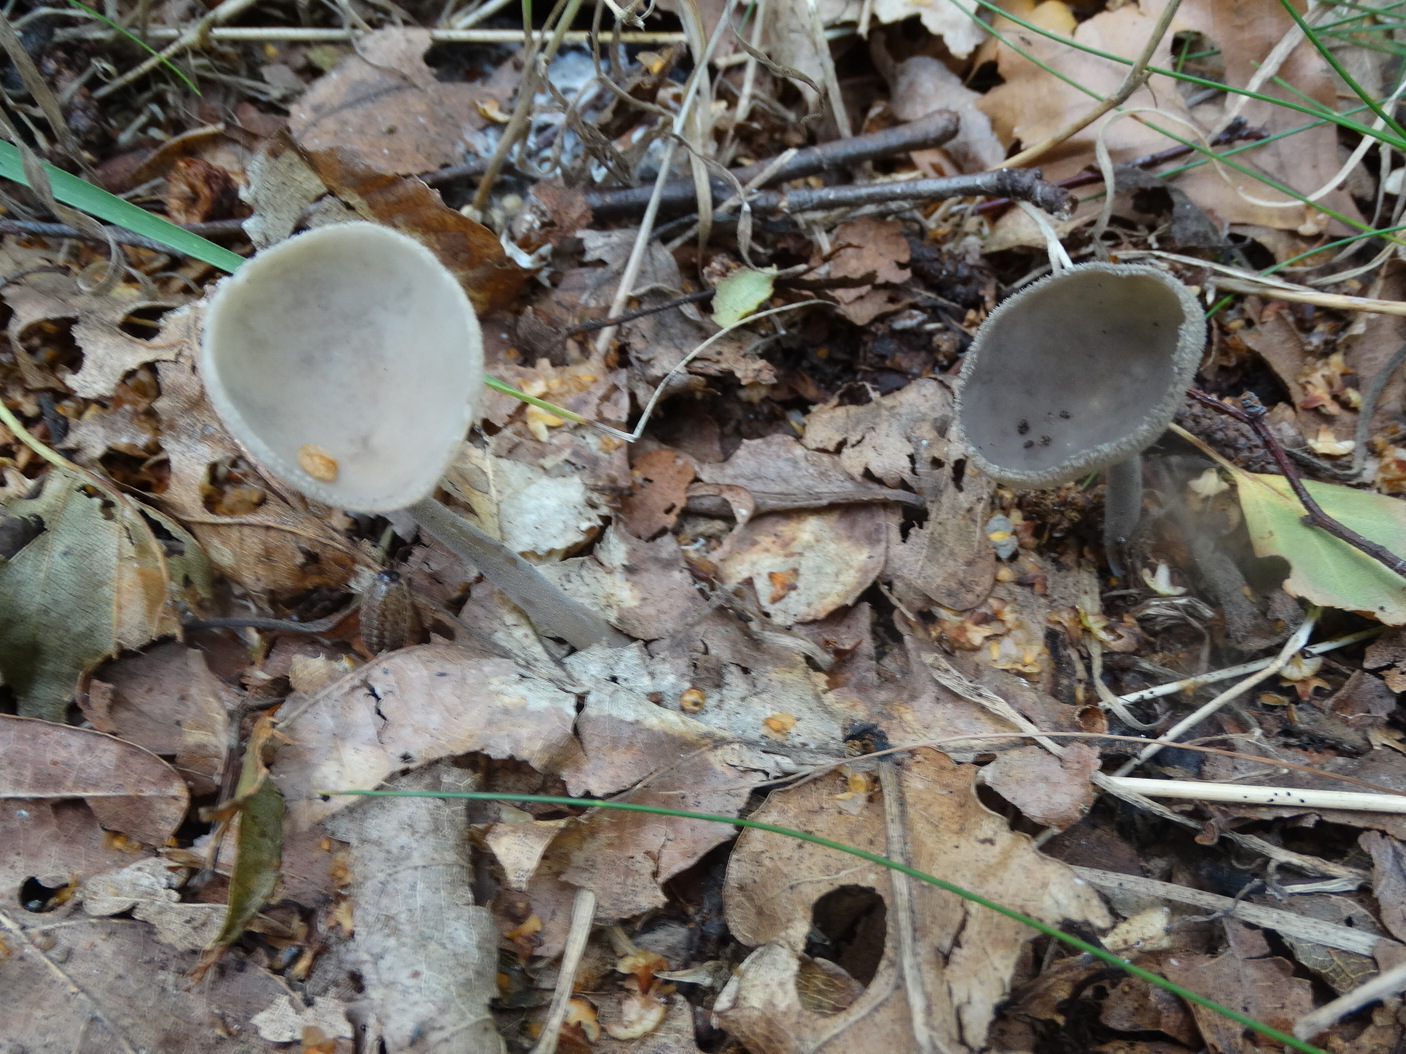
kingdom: Fungi
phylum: Ascomycota
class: Pezizomycetes
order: Pezizales
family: Helvellaceae
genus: Helvella
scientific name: Helvella
